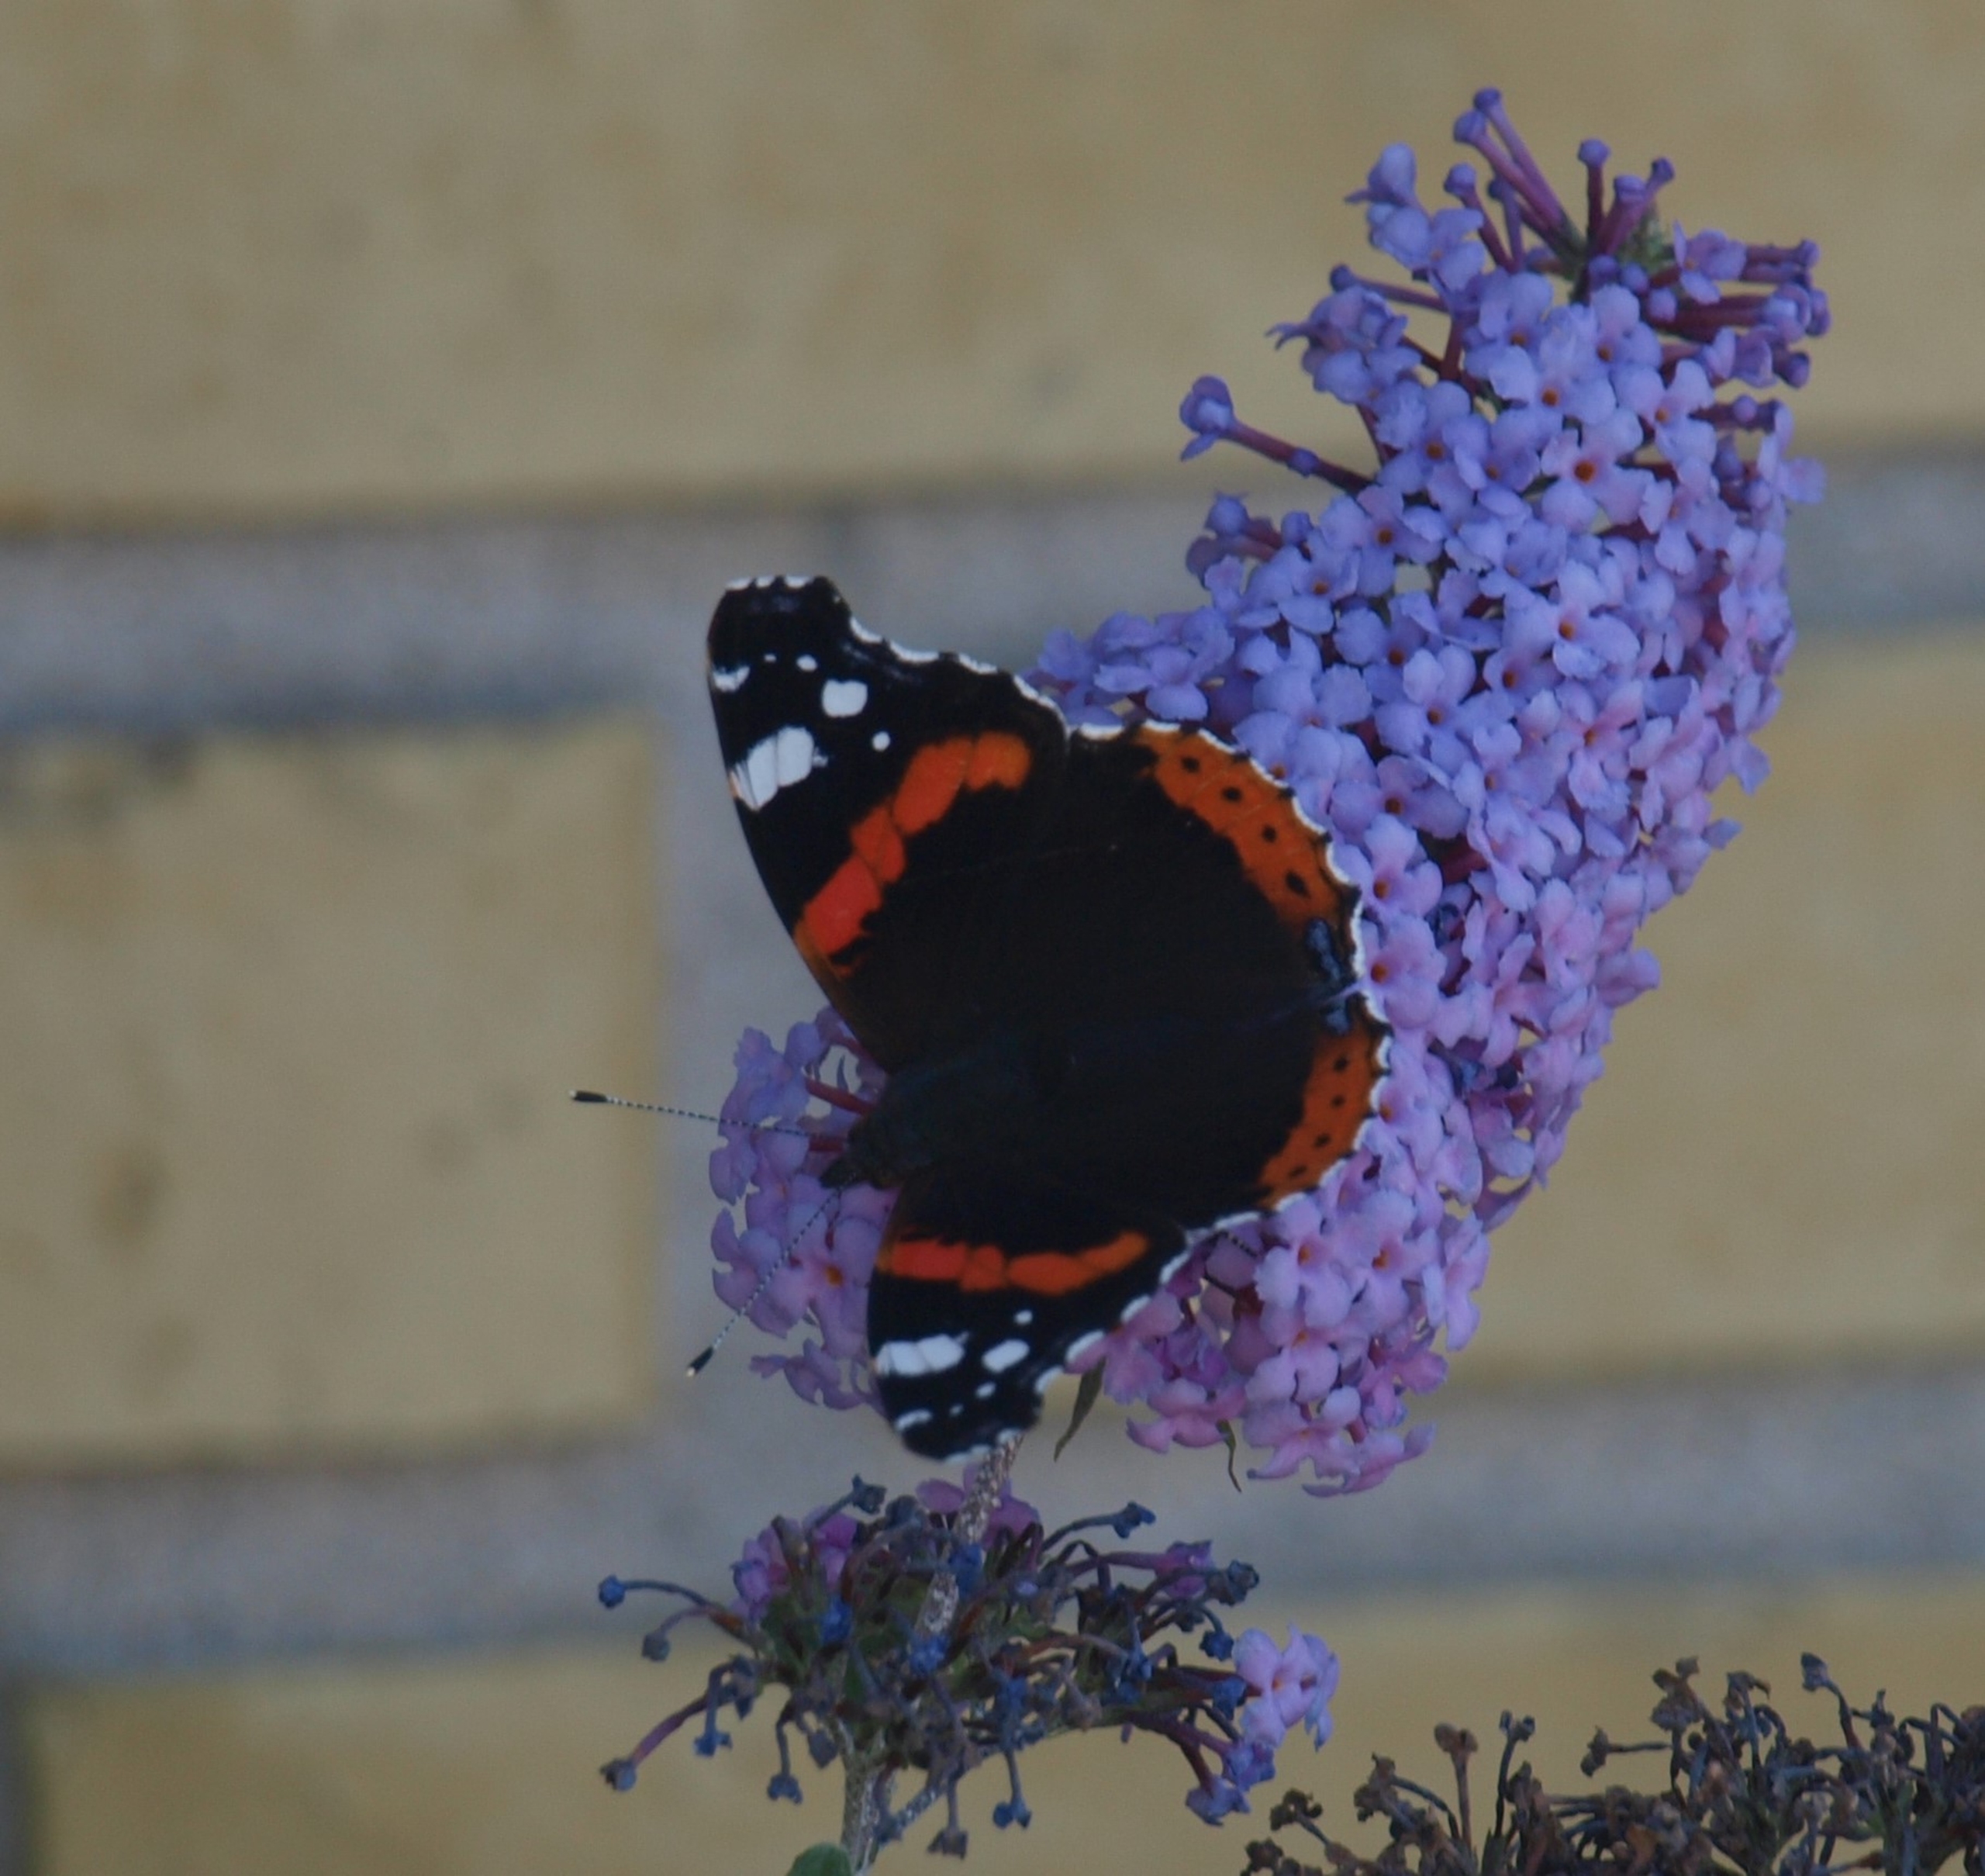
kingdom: Animalia
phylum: Arthropoda
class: Insecta
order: Lepidoptera
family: Nymphalidae
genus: Vanessa
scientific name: Vanessa atalanta
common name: Admiral
